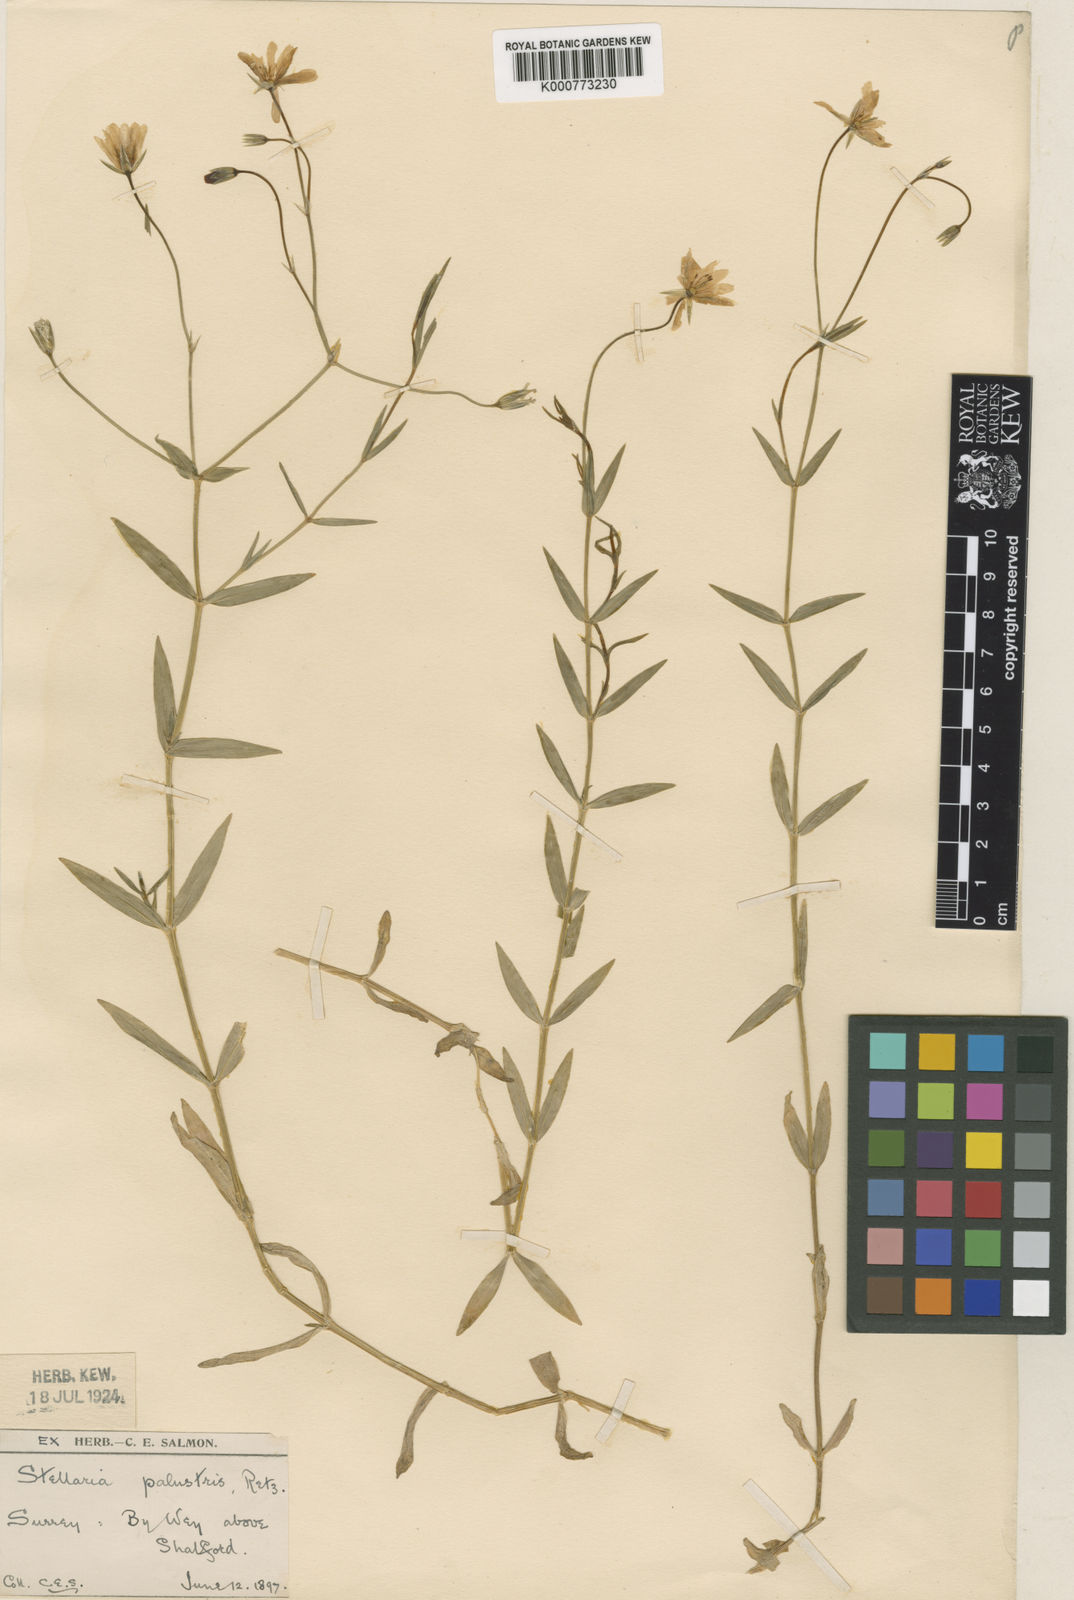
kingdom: Plantae
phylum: Tracheophyta
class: Magnoliopsida
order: Caryophyllales
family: Caryophyllaceae
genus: Stellaria
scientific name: Stellaria
